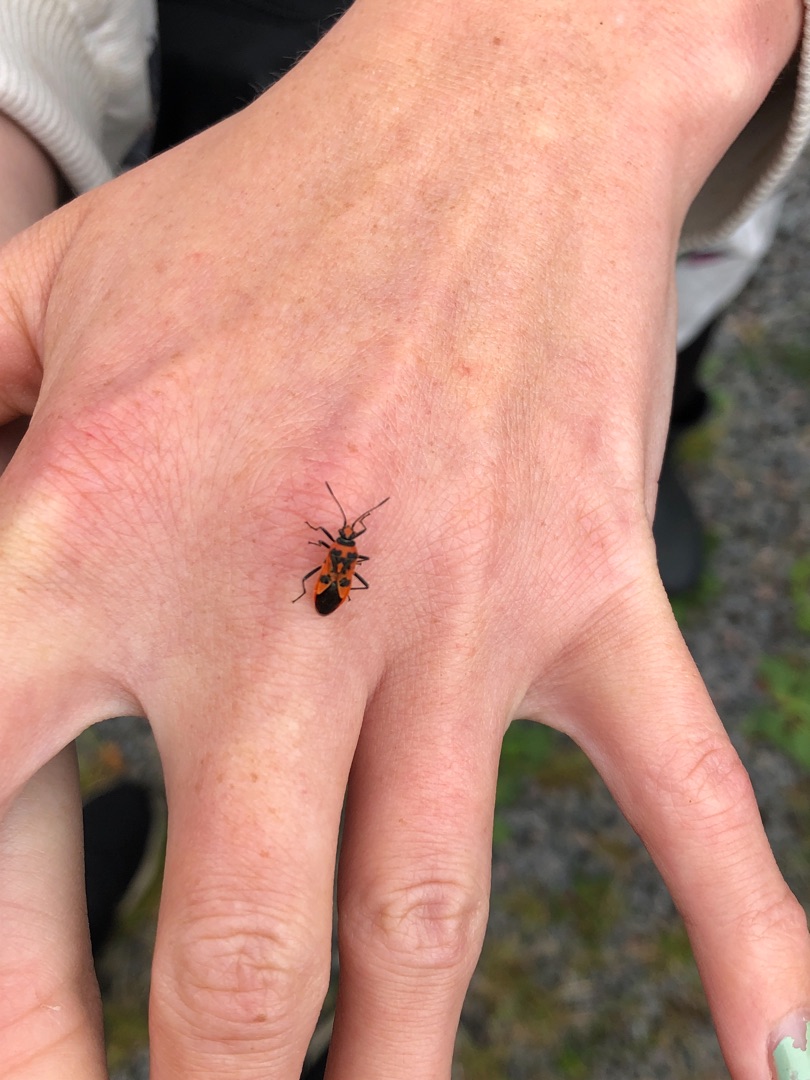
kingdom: Animalia
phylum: Arthropoda
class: Insecta
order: Hemiptera
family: Rhopalidae
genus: Corizus
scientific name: Corizus hyoscyami
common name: Rød kanttæge
